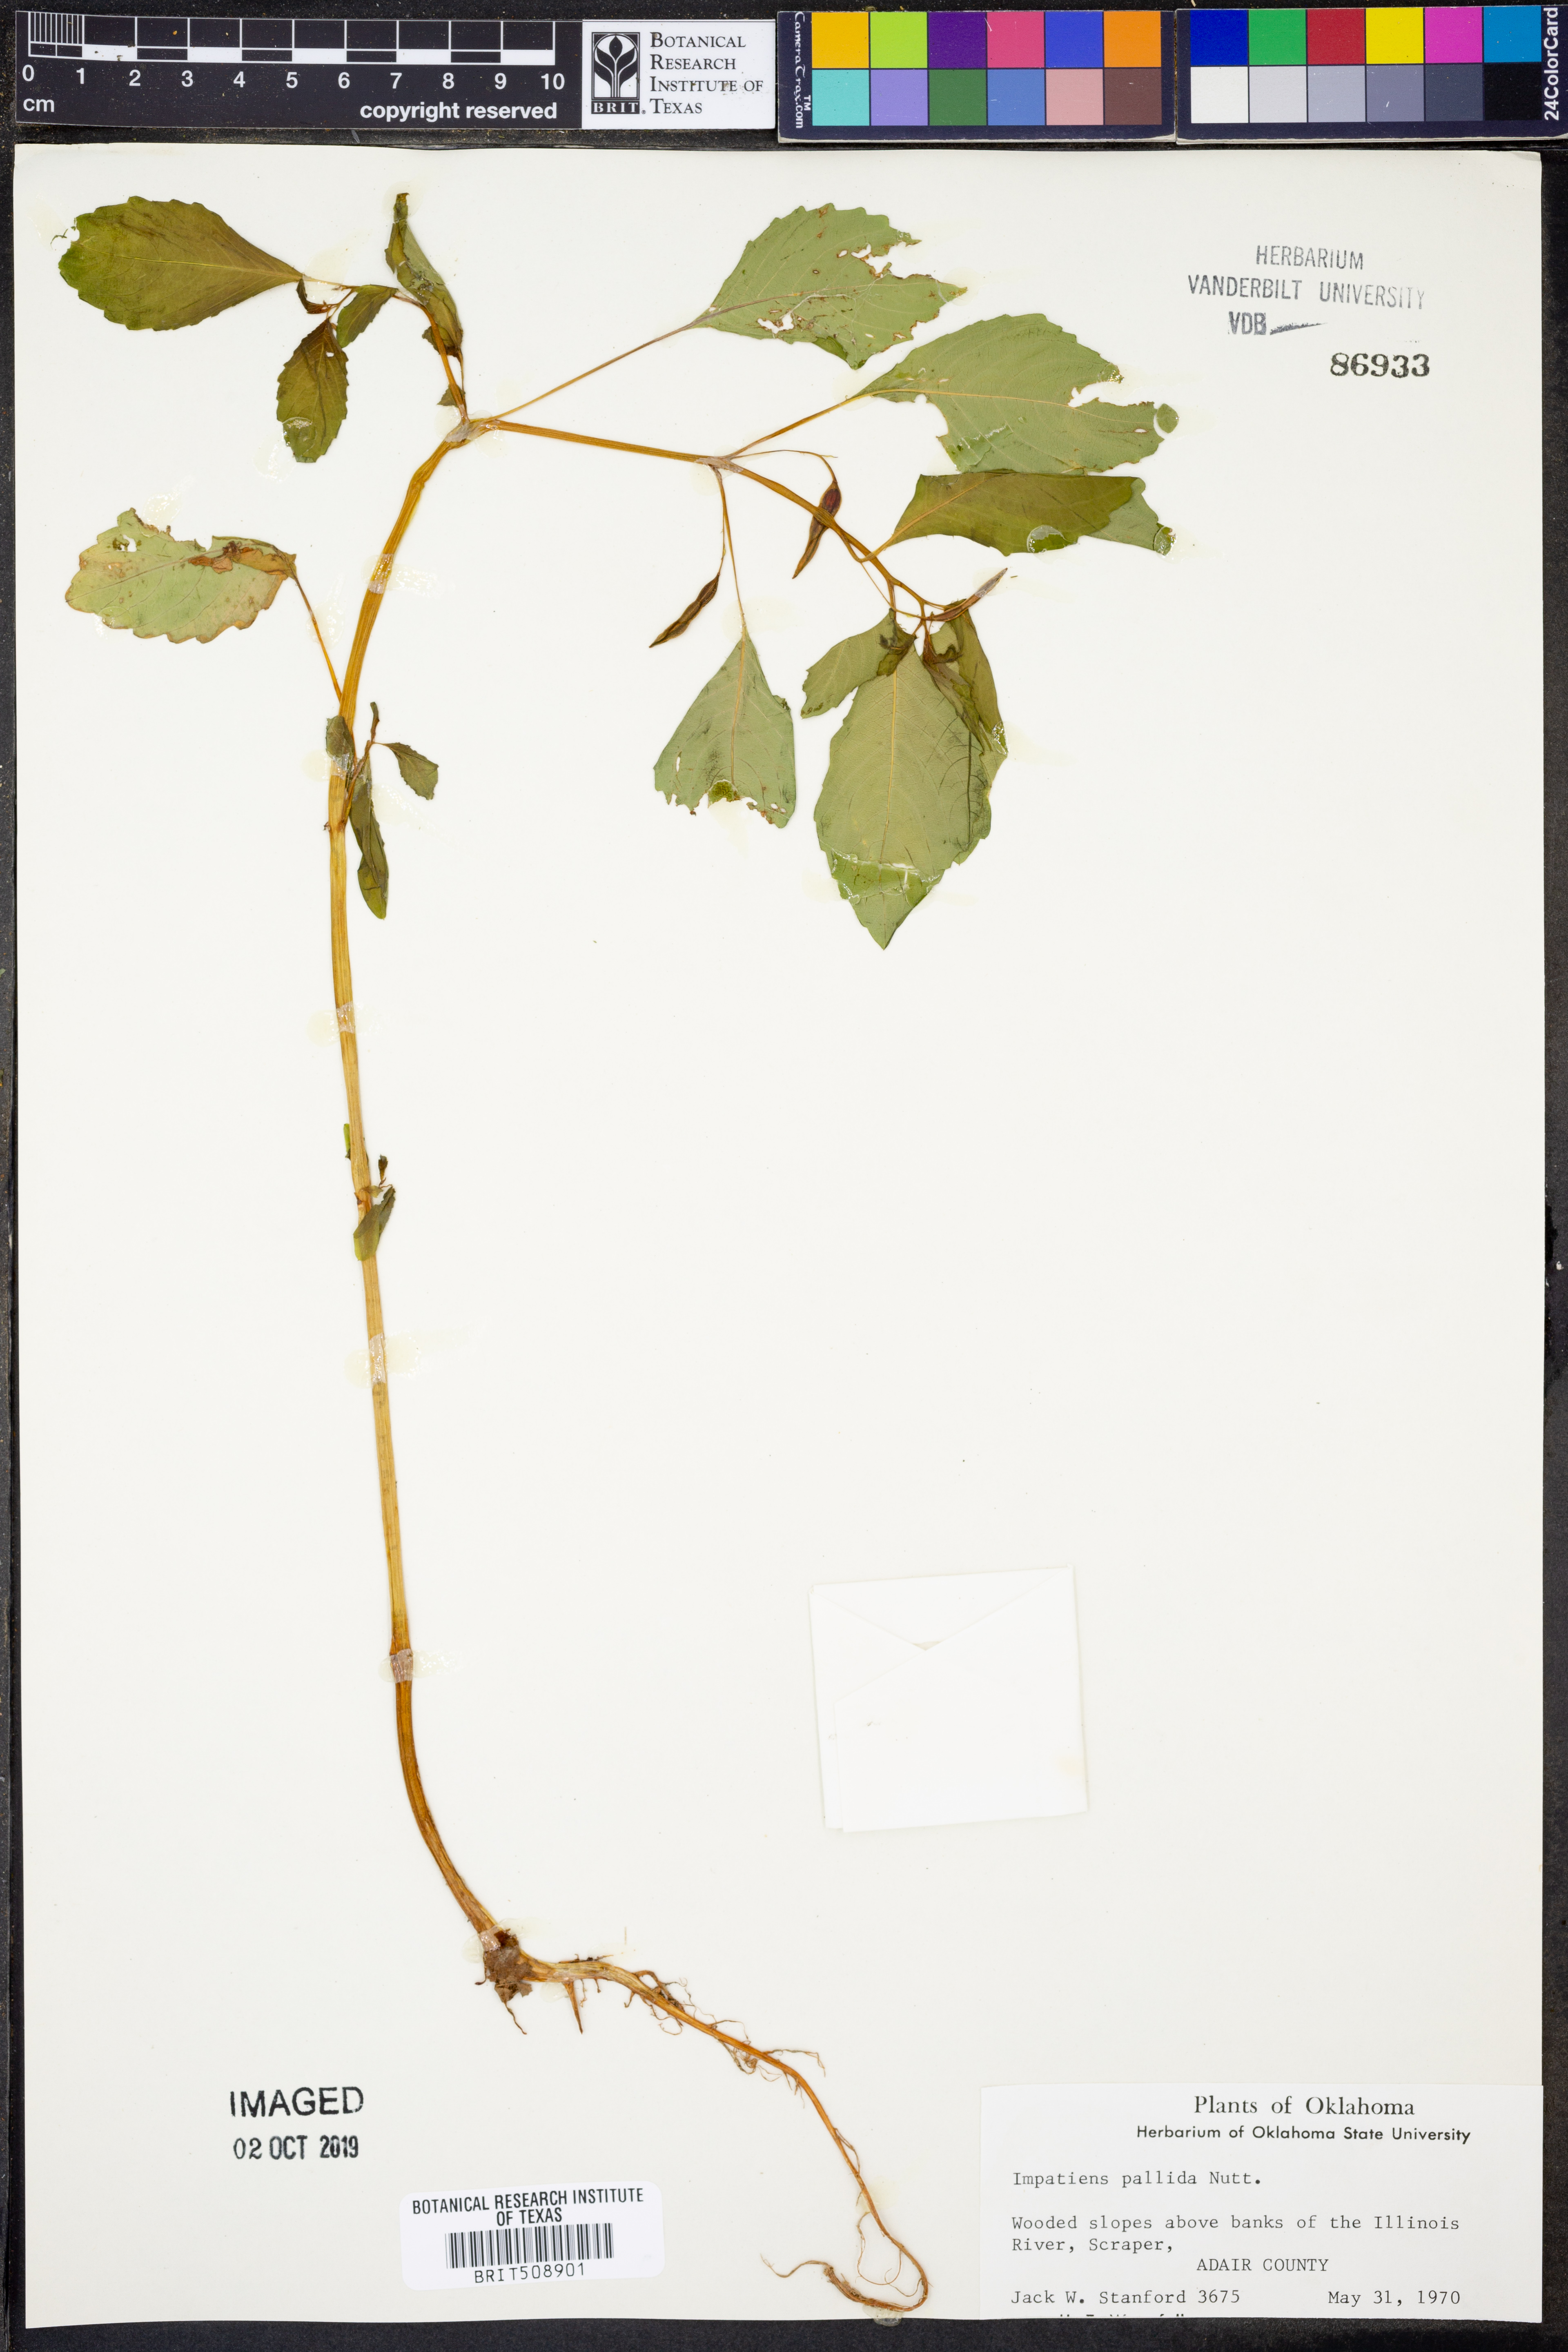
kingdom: Plantae
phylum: Tracheophyta
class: Magnoliopsida
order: Ericales
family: Balsaminaceae
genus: Impatiens
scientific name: Impatiens pallida
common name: Pale snapweed
